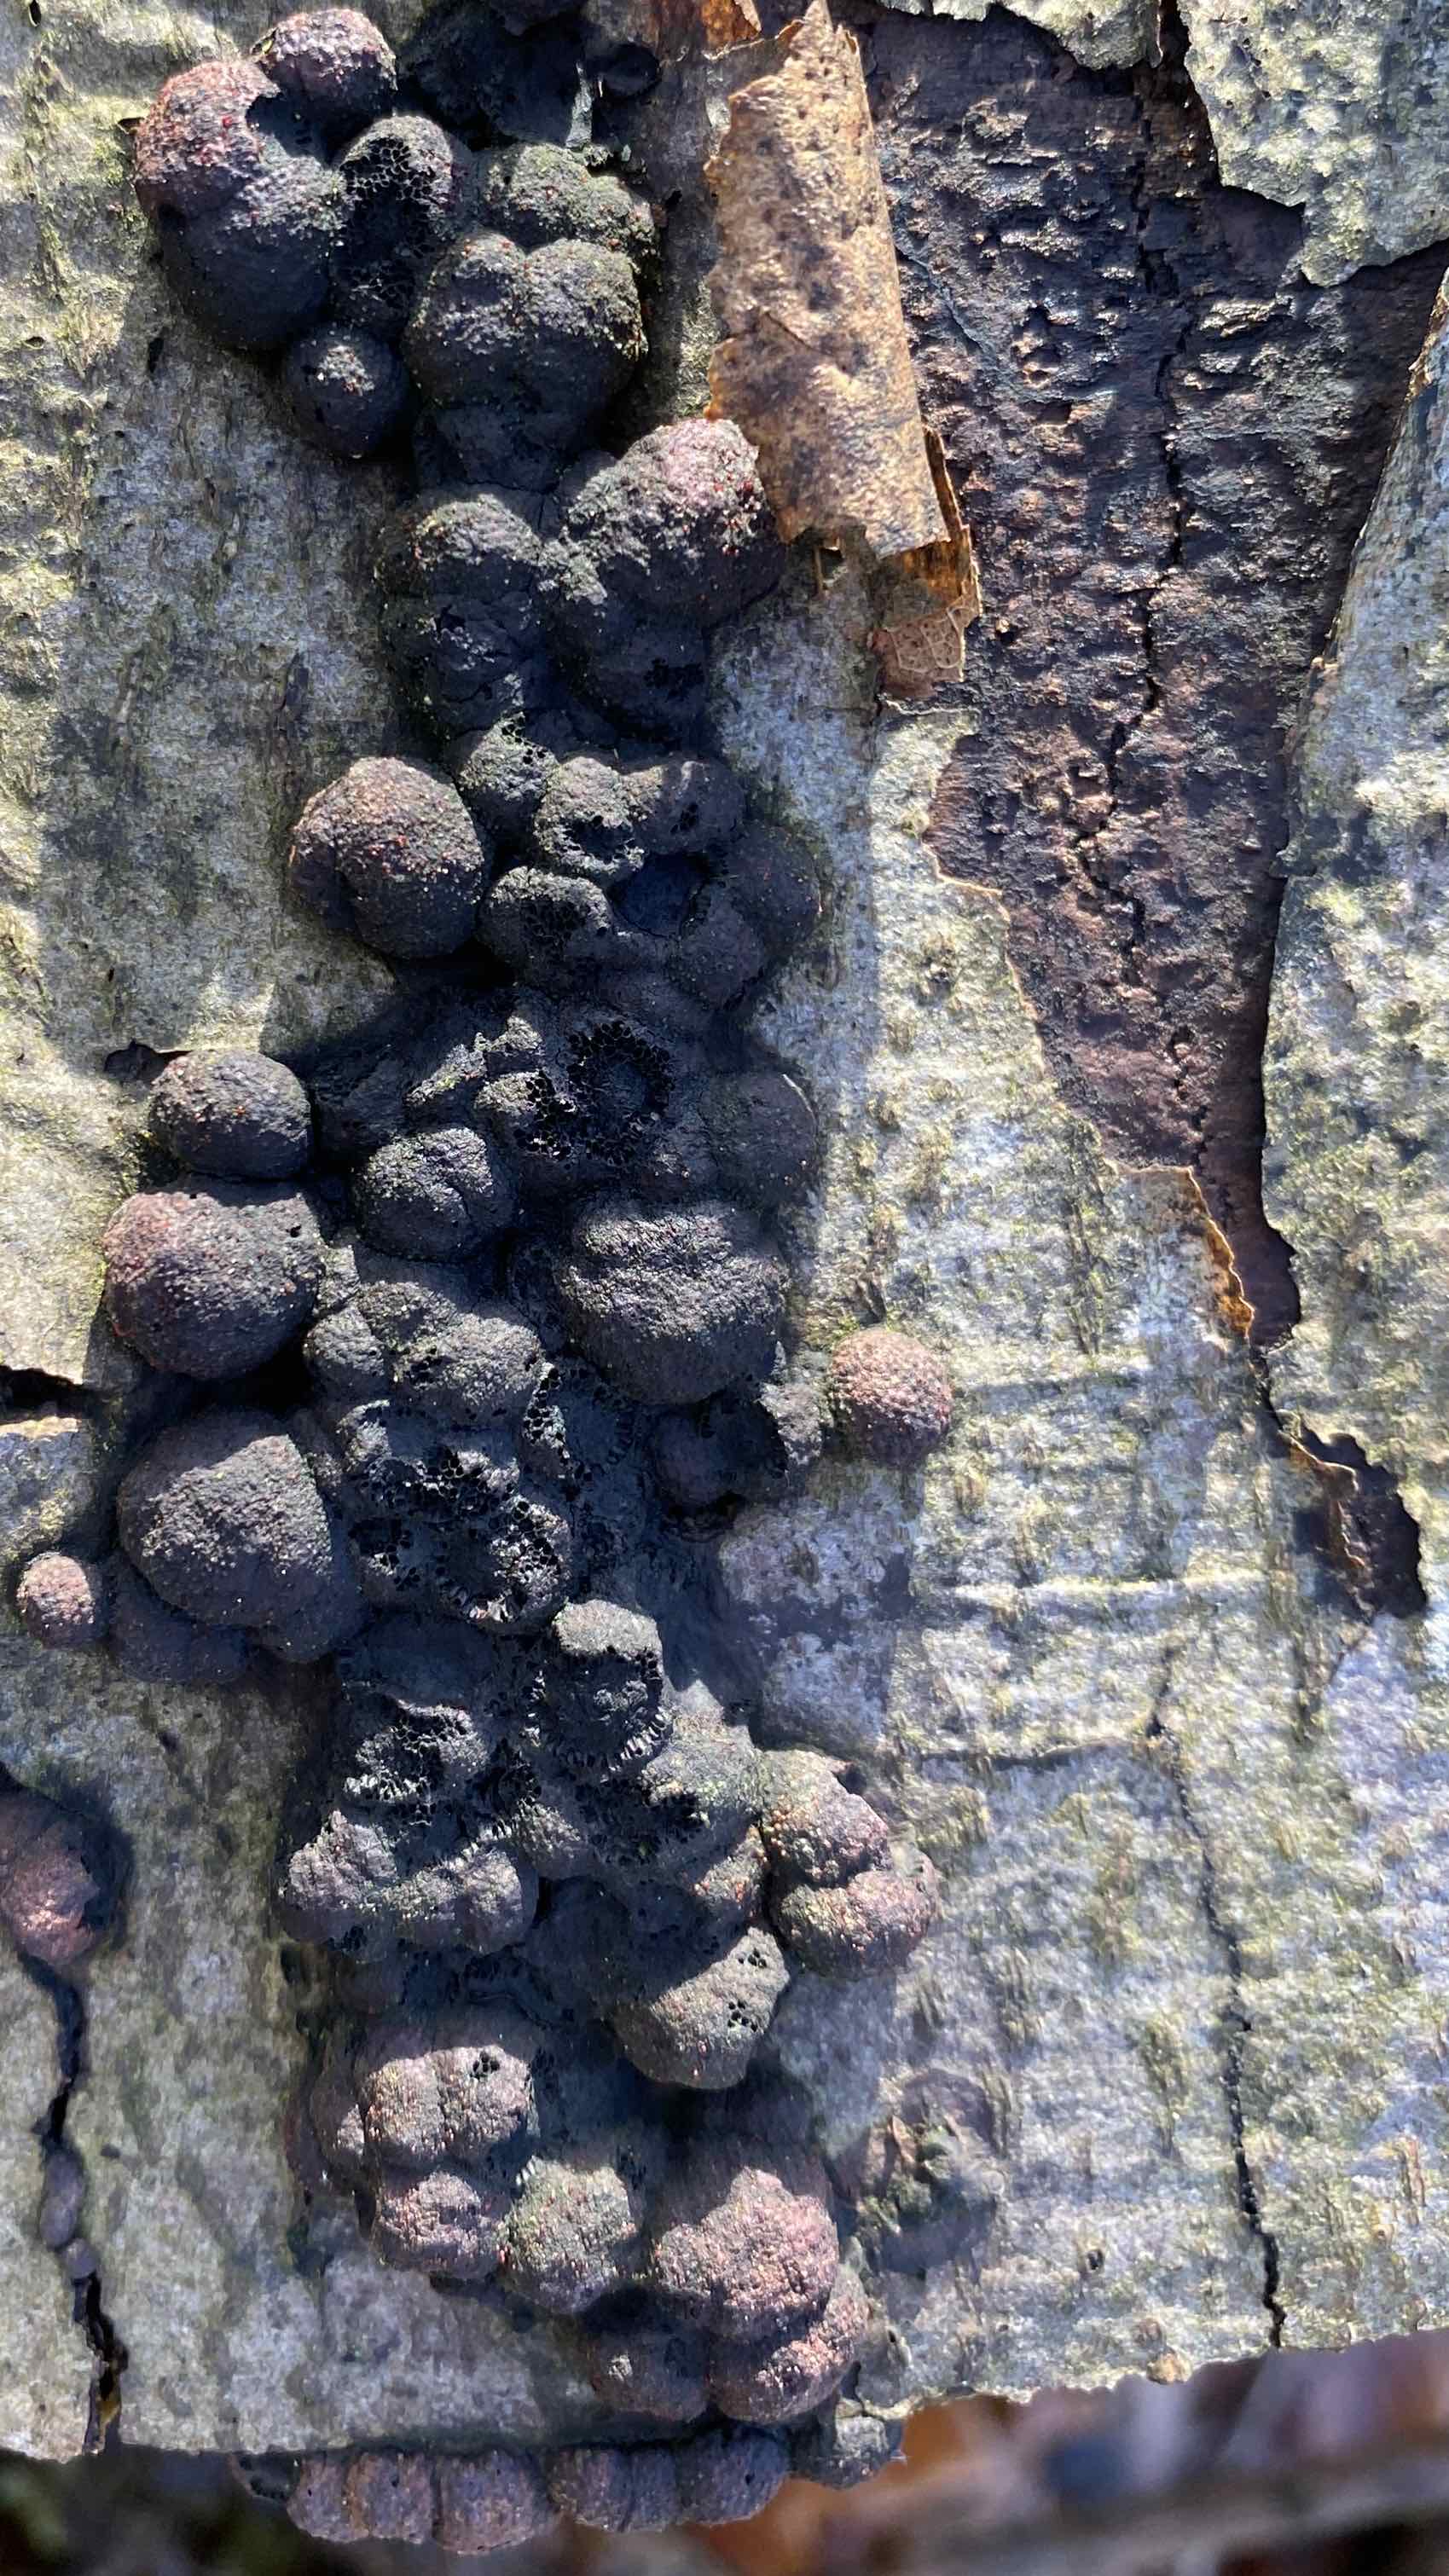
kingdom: Fungi
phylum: Ascomycota
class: Sordariomycetes
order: Xylariales
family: Hypoxylaceae
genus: Hypoxylon
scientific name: Hypoxylon fragiforme
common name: kuljordbær
